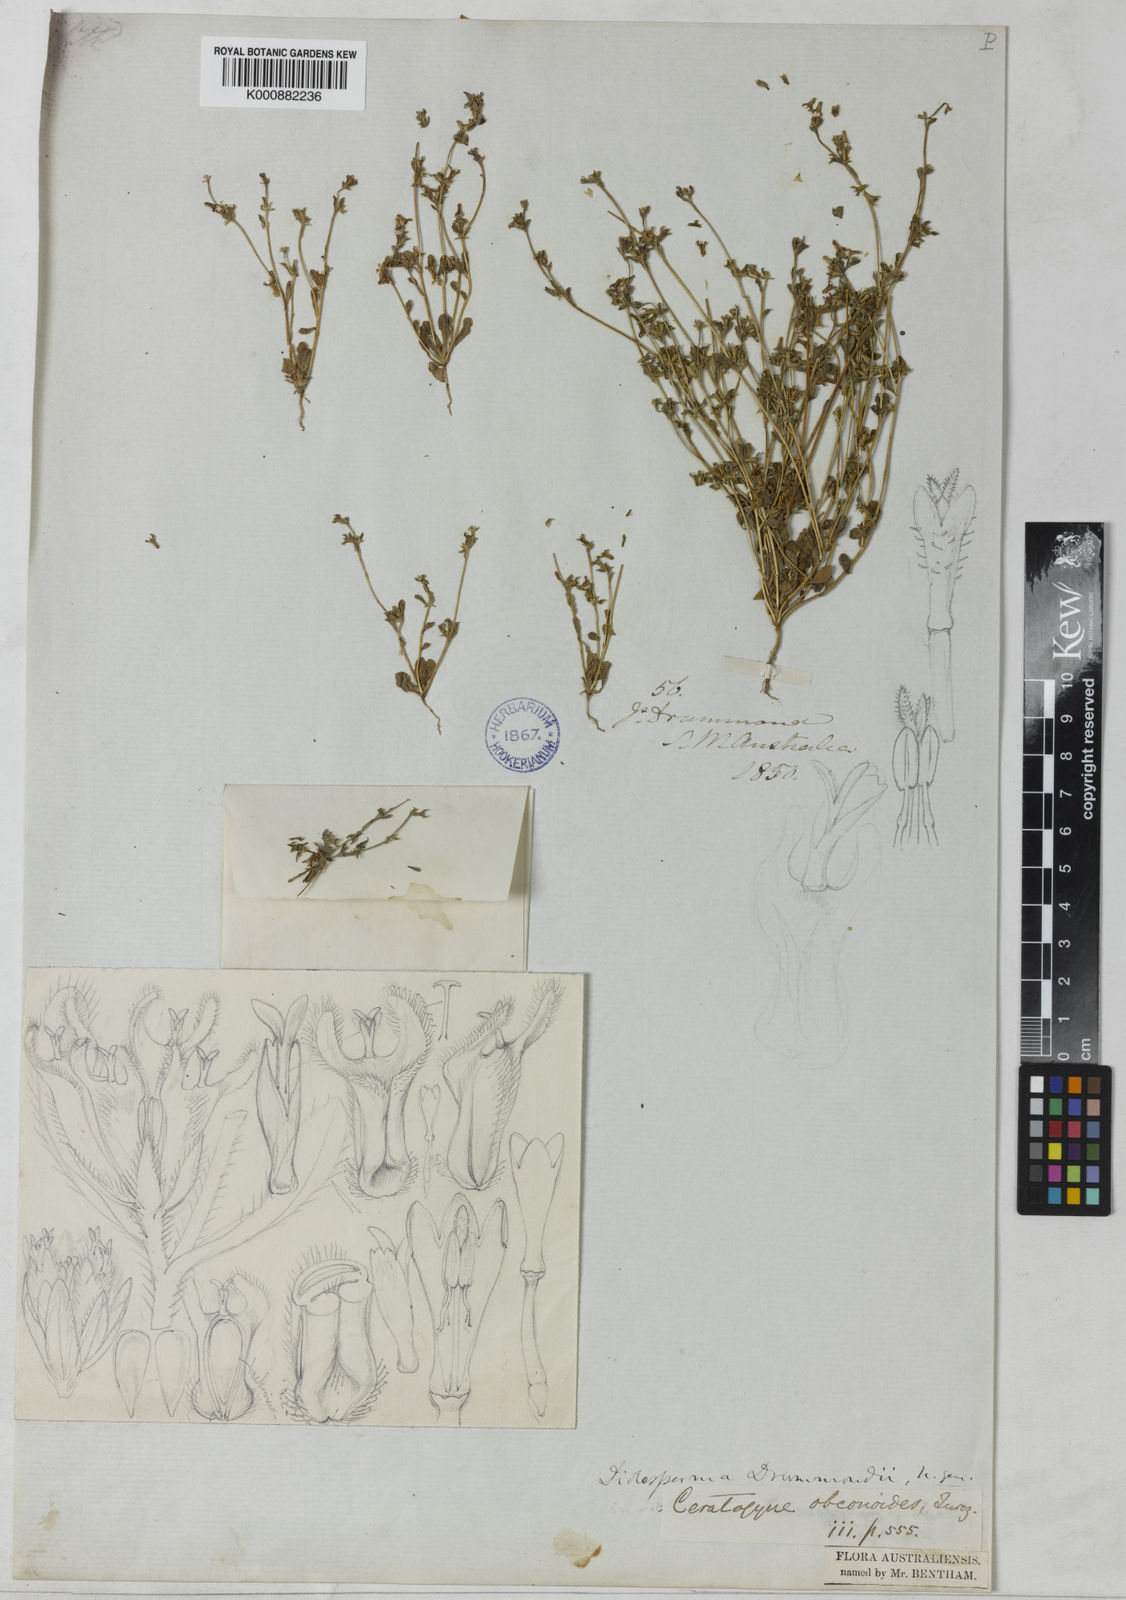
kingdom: Plantae
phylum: Tracheophyta
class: Magnoliopsida
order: Asterales
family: Asteraceae
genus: Ceratogyne
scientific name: Ceratogyne obionoides
